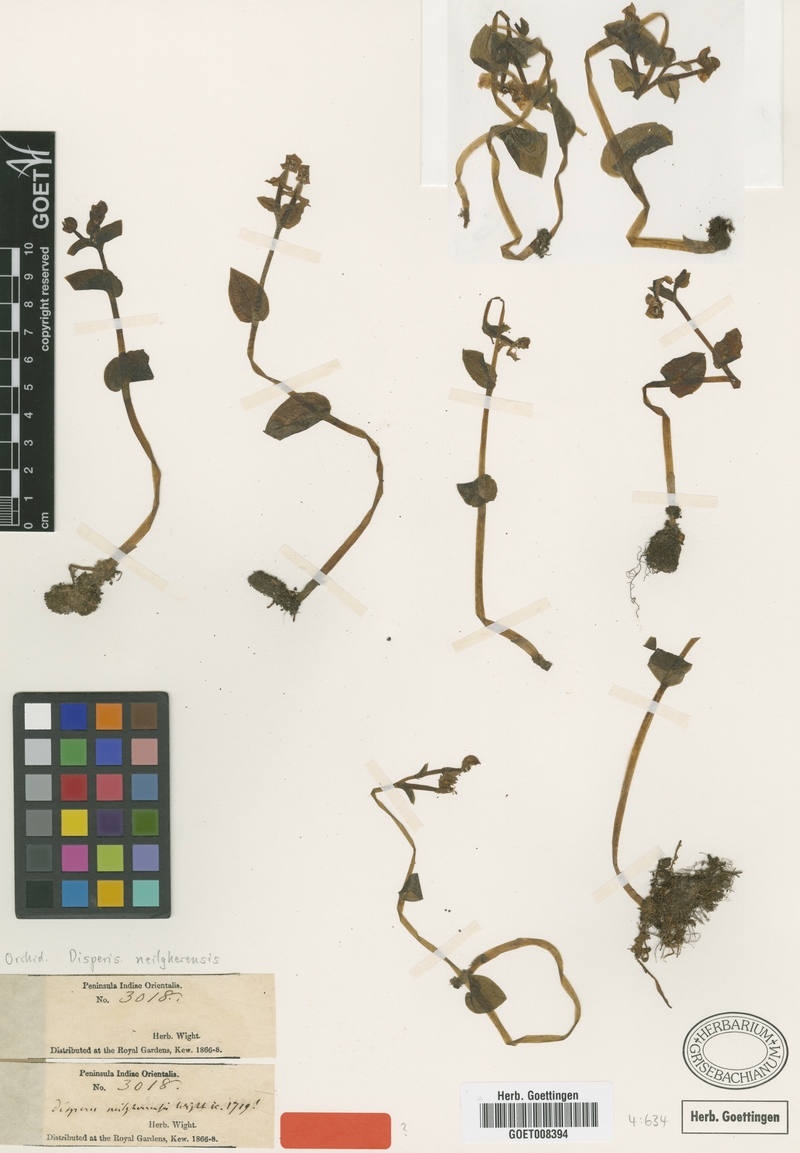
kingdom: Plantae
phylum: Tracheophyta
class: Liliopsida
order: Asparagales
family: Orchidaceae
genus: Disperis
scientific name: Disperis neilgherrensis
